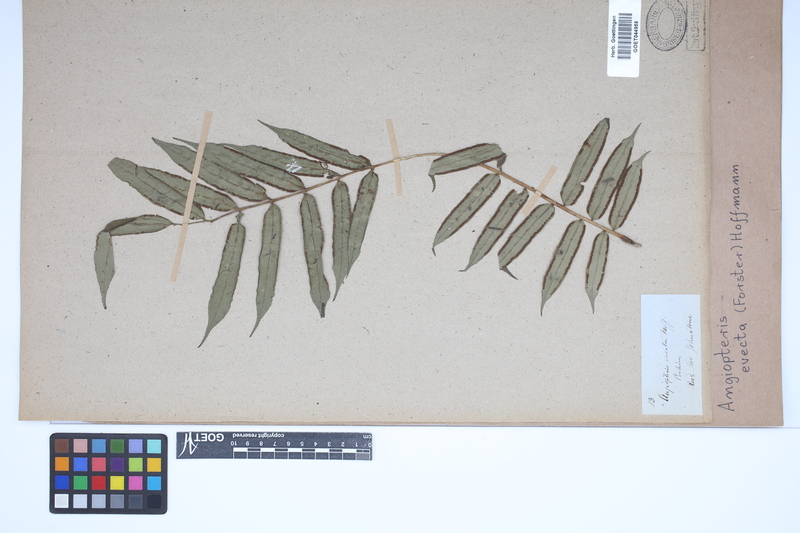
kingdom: Plantae
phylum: Tracheophyta
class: Polypodiopsida
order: Marattiales
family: Marattiaceae
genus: Angiopteris
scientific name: Angiopteris evecta
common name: Mule's-foot fern
